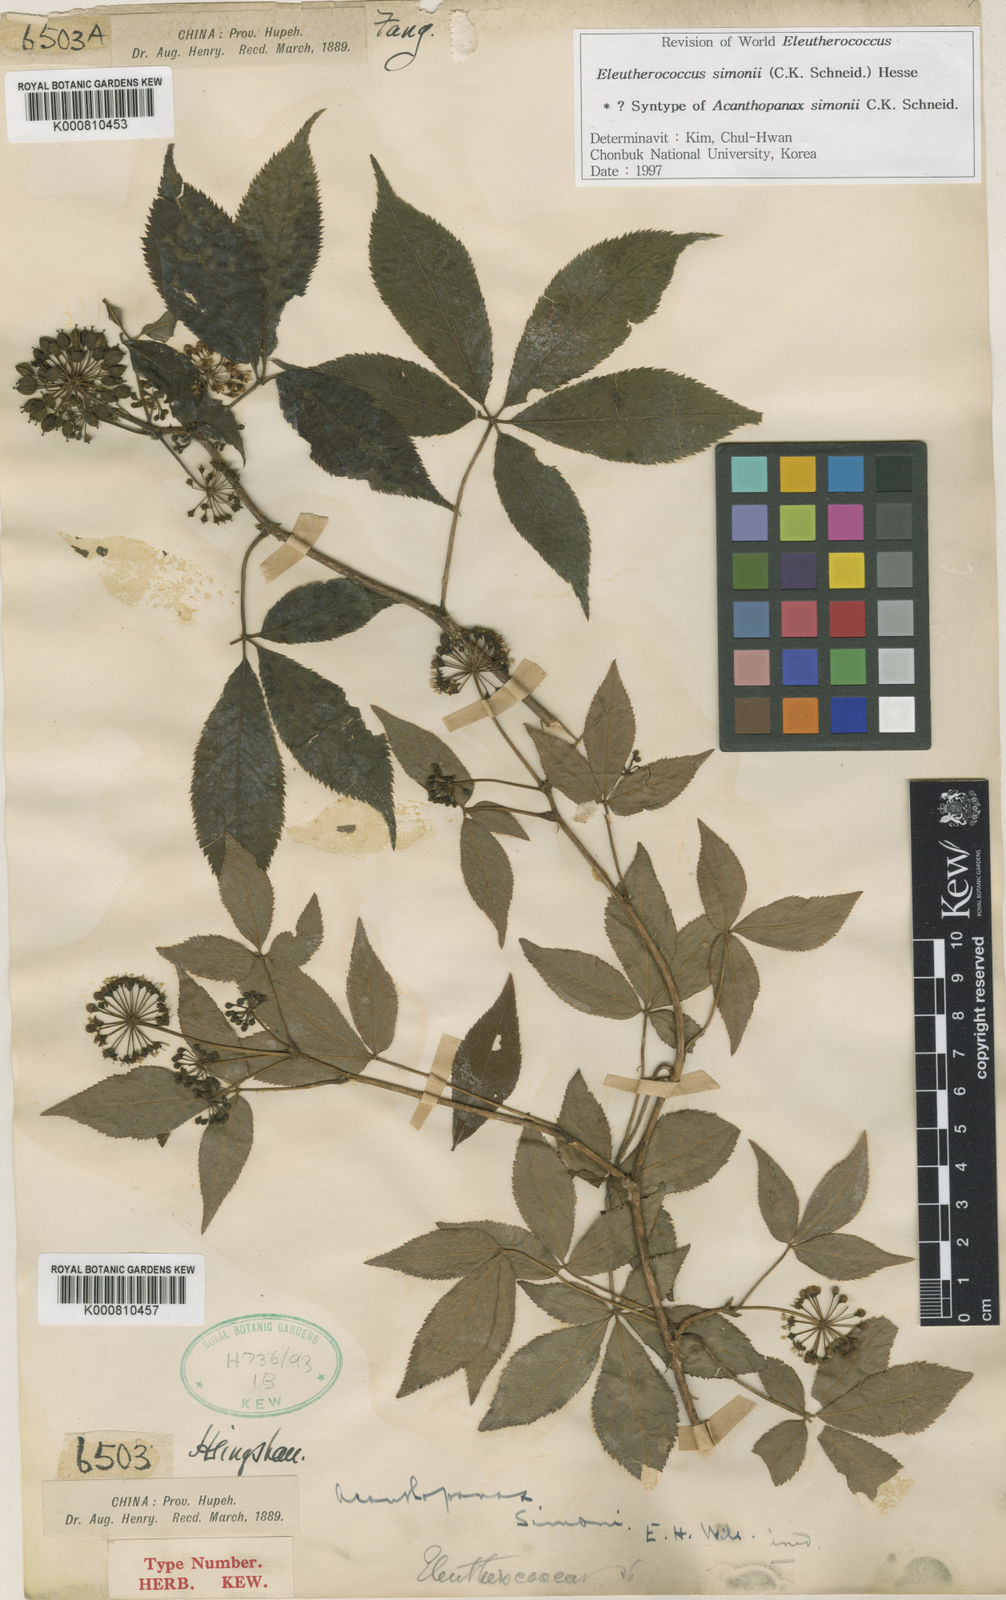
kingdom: Plantae
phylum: Tracheophyta
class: Magnoliopsida
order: Apiales
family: Araliaceae
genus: Acanthopanax
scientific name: Acanthopanax
